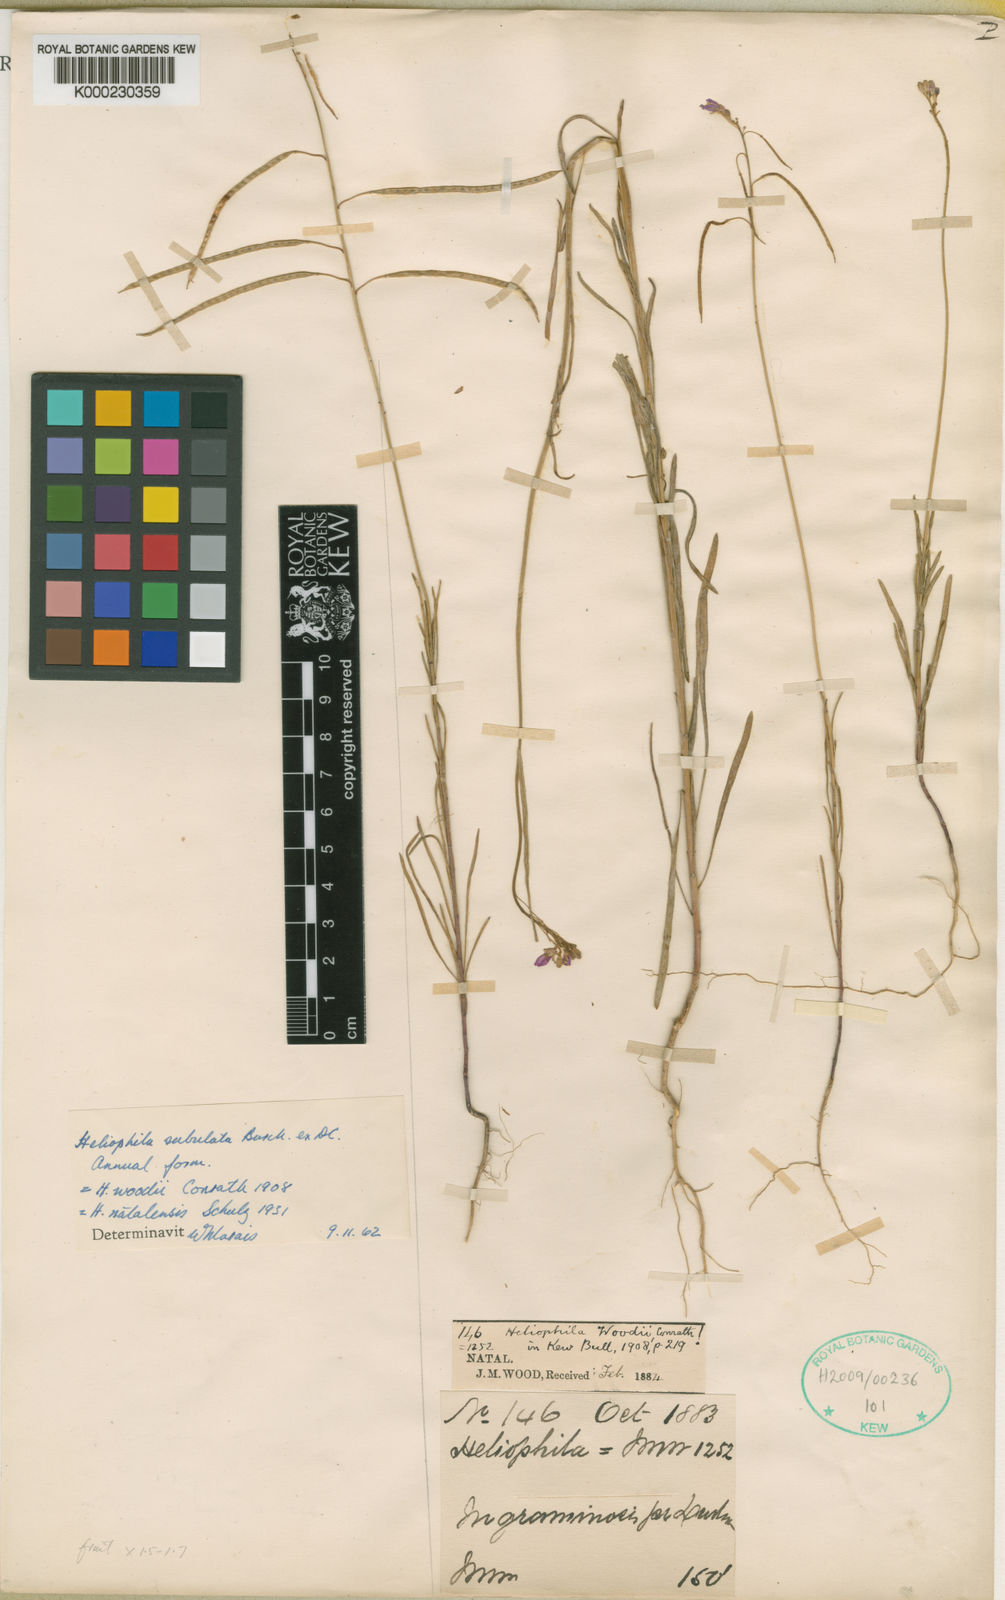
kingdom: Plantae
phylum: Tracheophyta
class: Magnoliopsida
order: Brassicales
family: Brassicaceae
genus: Heliophila
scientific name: Heliophila subulata
